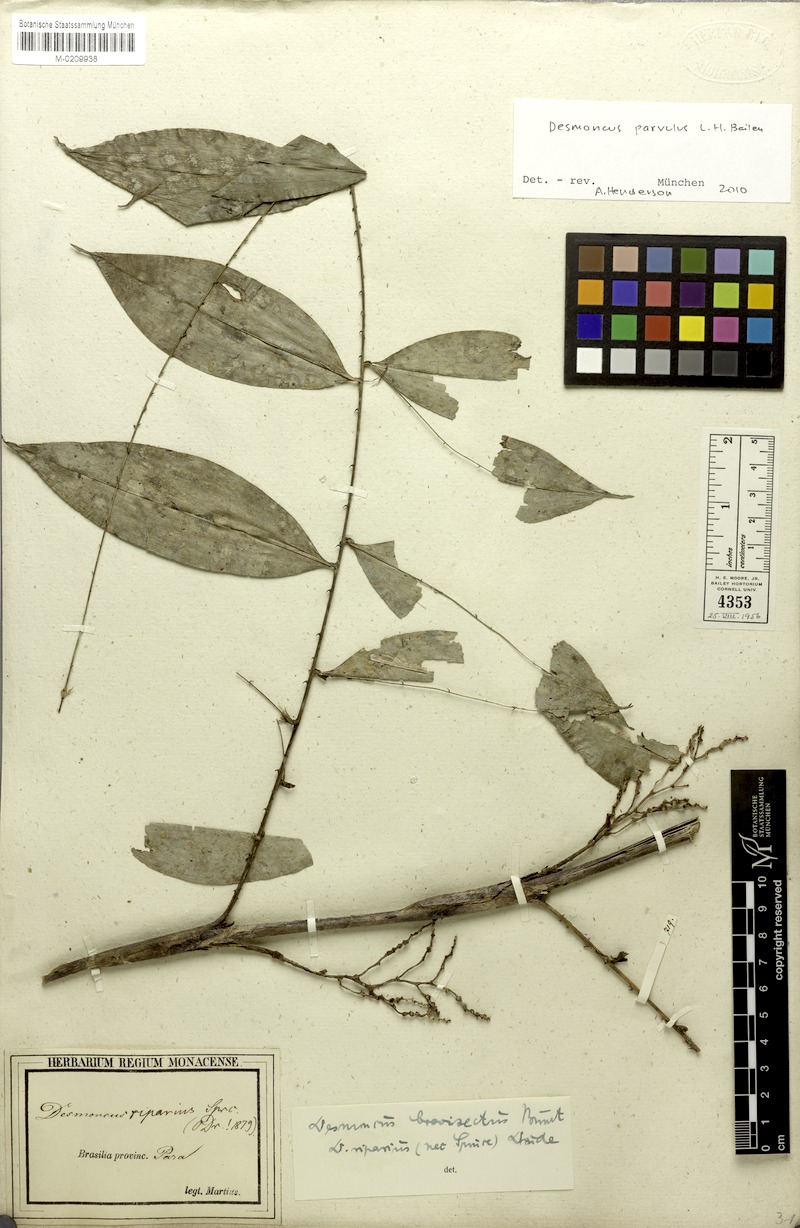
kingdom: Plantae
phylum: Tracheophyta
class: Liliopsida
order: Arecales
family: Arecaceae
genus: Desmoncus
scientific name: Desmoncus polyacanthos
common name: Suriname bramble palm
